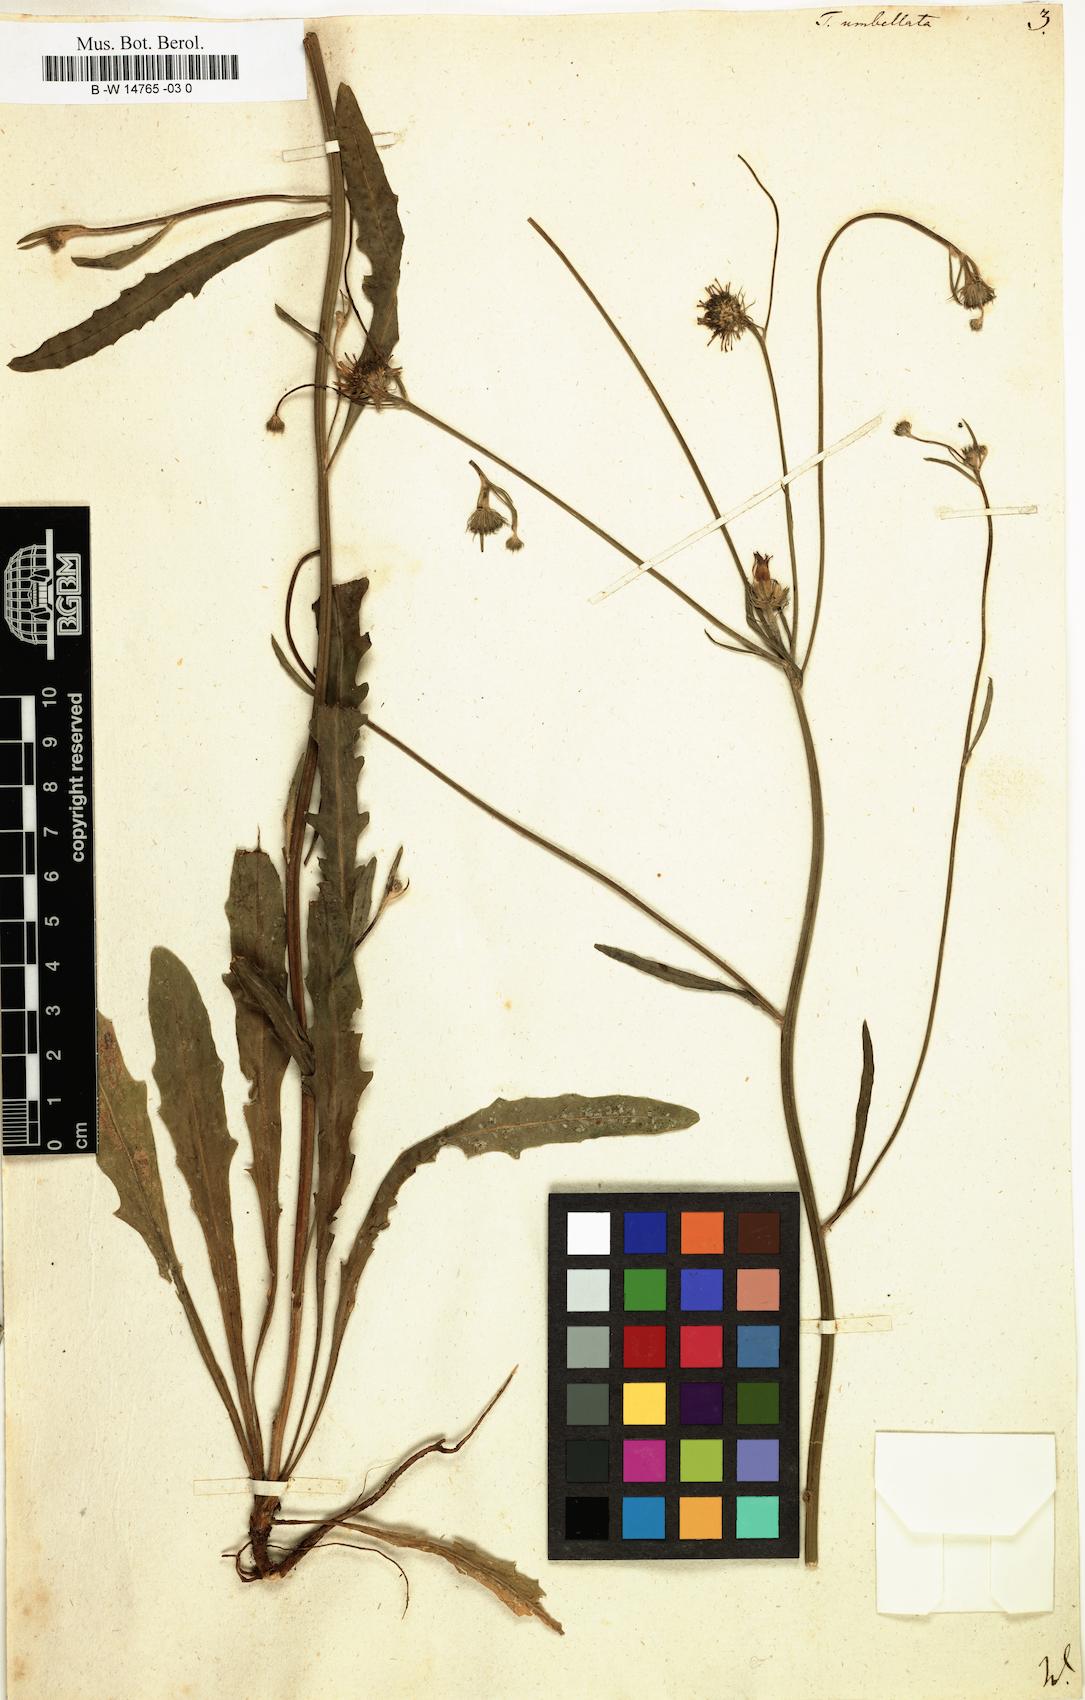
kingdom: Plantae
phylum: Tracheophyta
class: Magnoliopsida
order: Asterales
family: Asteraceae
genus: Tolpis
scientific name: Tolpis umbellata
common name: Yellow hawkweed
